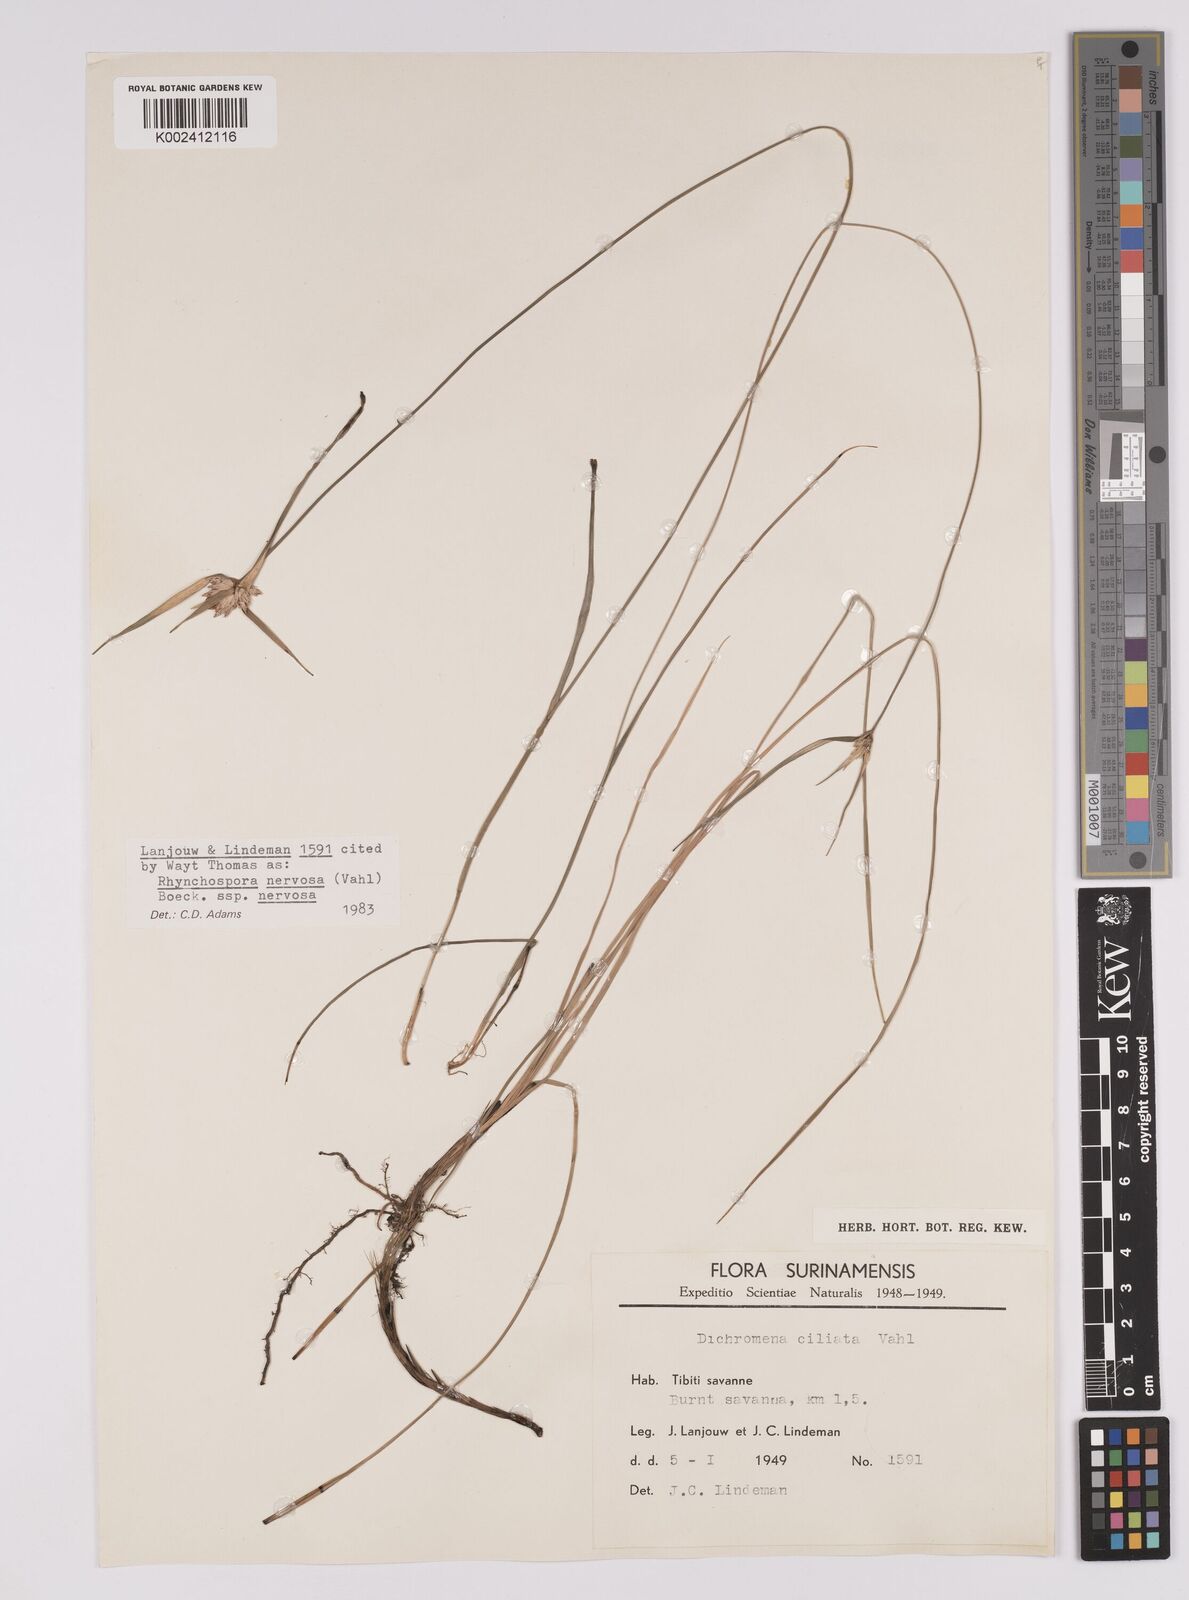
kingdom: Plantae
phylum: Tracheophyta
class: Liliopsida
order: Poales
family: Cyperaceae
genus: Rhynchospora
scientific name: Rhynchospora nervosa
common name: Star sedge
